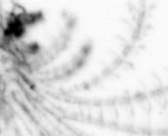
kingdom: Animalia
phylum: Arthropoda
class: Maxillopoda
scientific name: Maxillopoda
